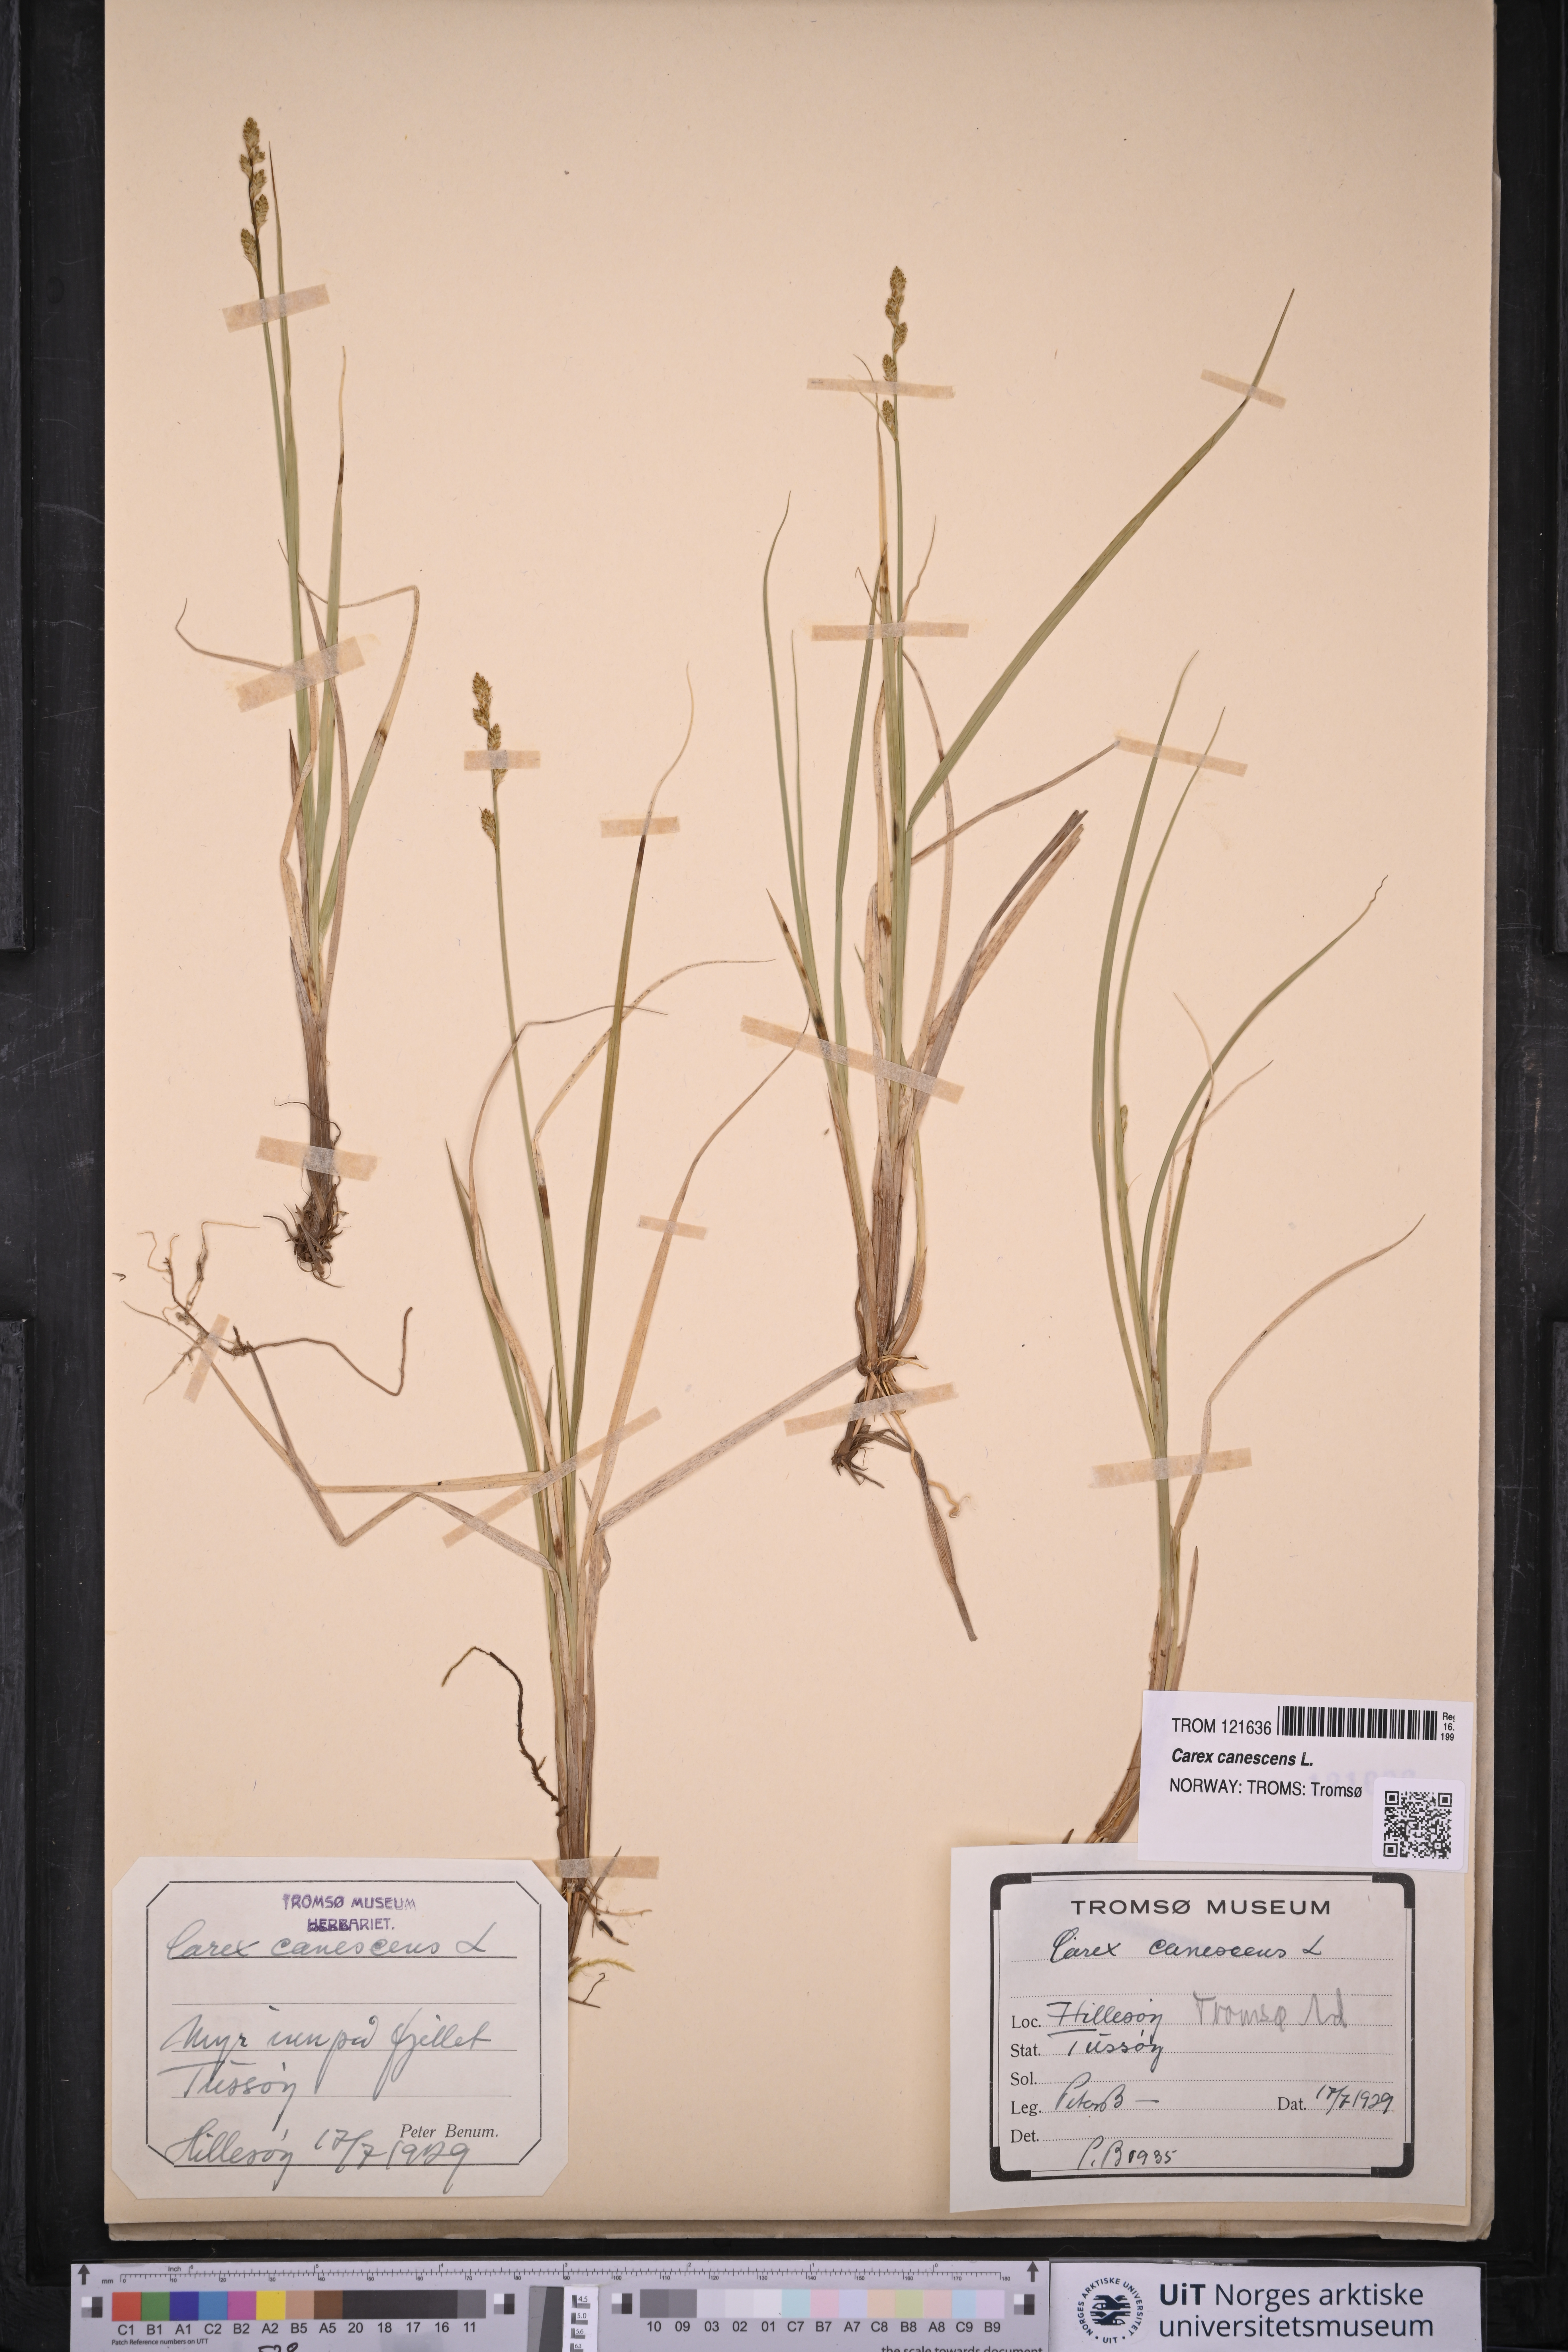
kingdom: Plantae
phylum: Tracheophyta
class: Liliopsida
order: Poales
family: Cyperaceae
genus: Carex
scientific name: Carex canescens
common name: White sedge
